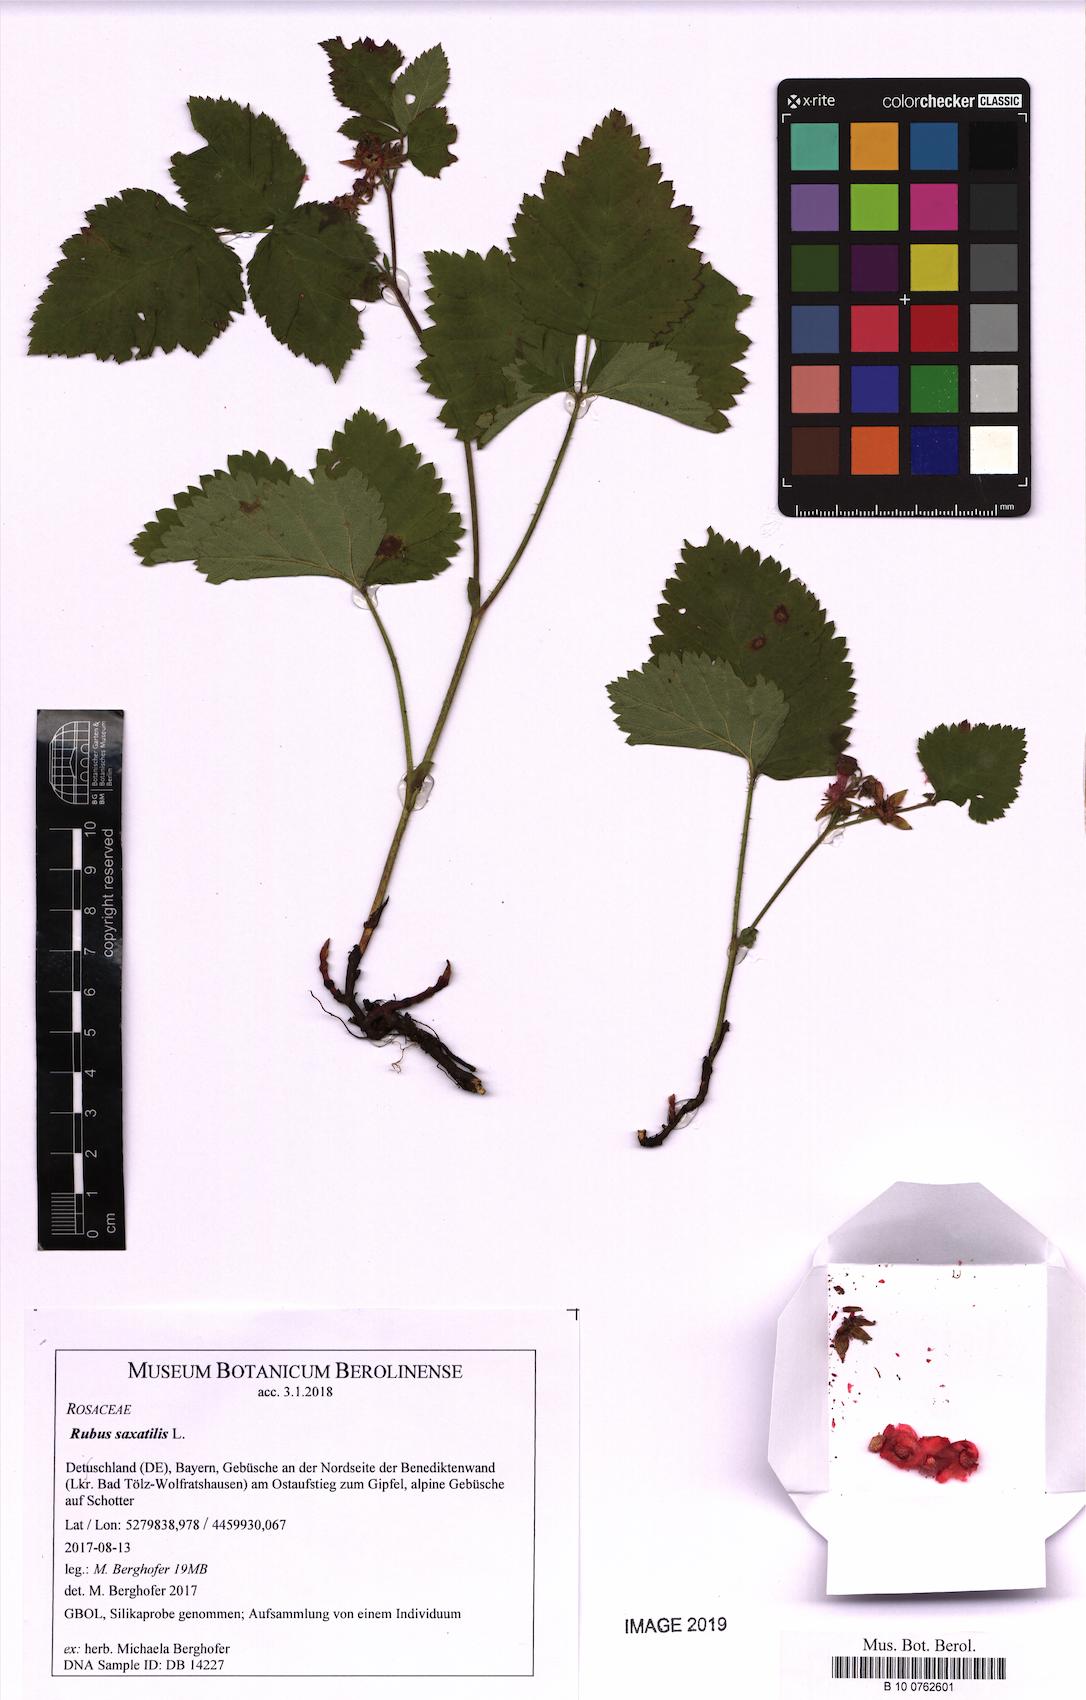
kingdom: Plantae
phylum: Tracheophyta
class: Magnoliopsida
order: Rosales
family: Rosaceae
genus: Rubus
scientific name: Rubus saxatilis
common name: Stone bramble
